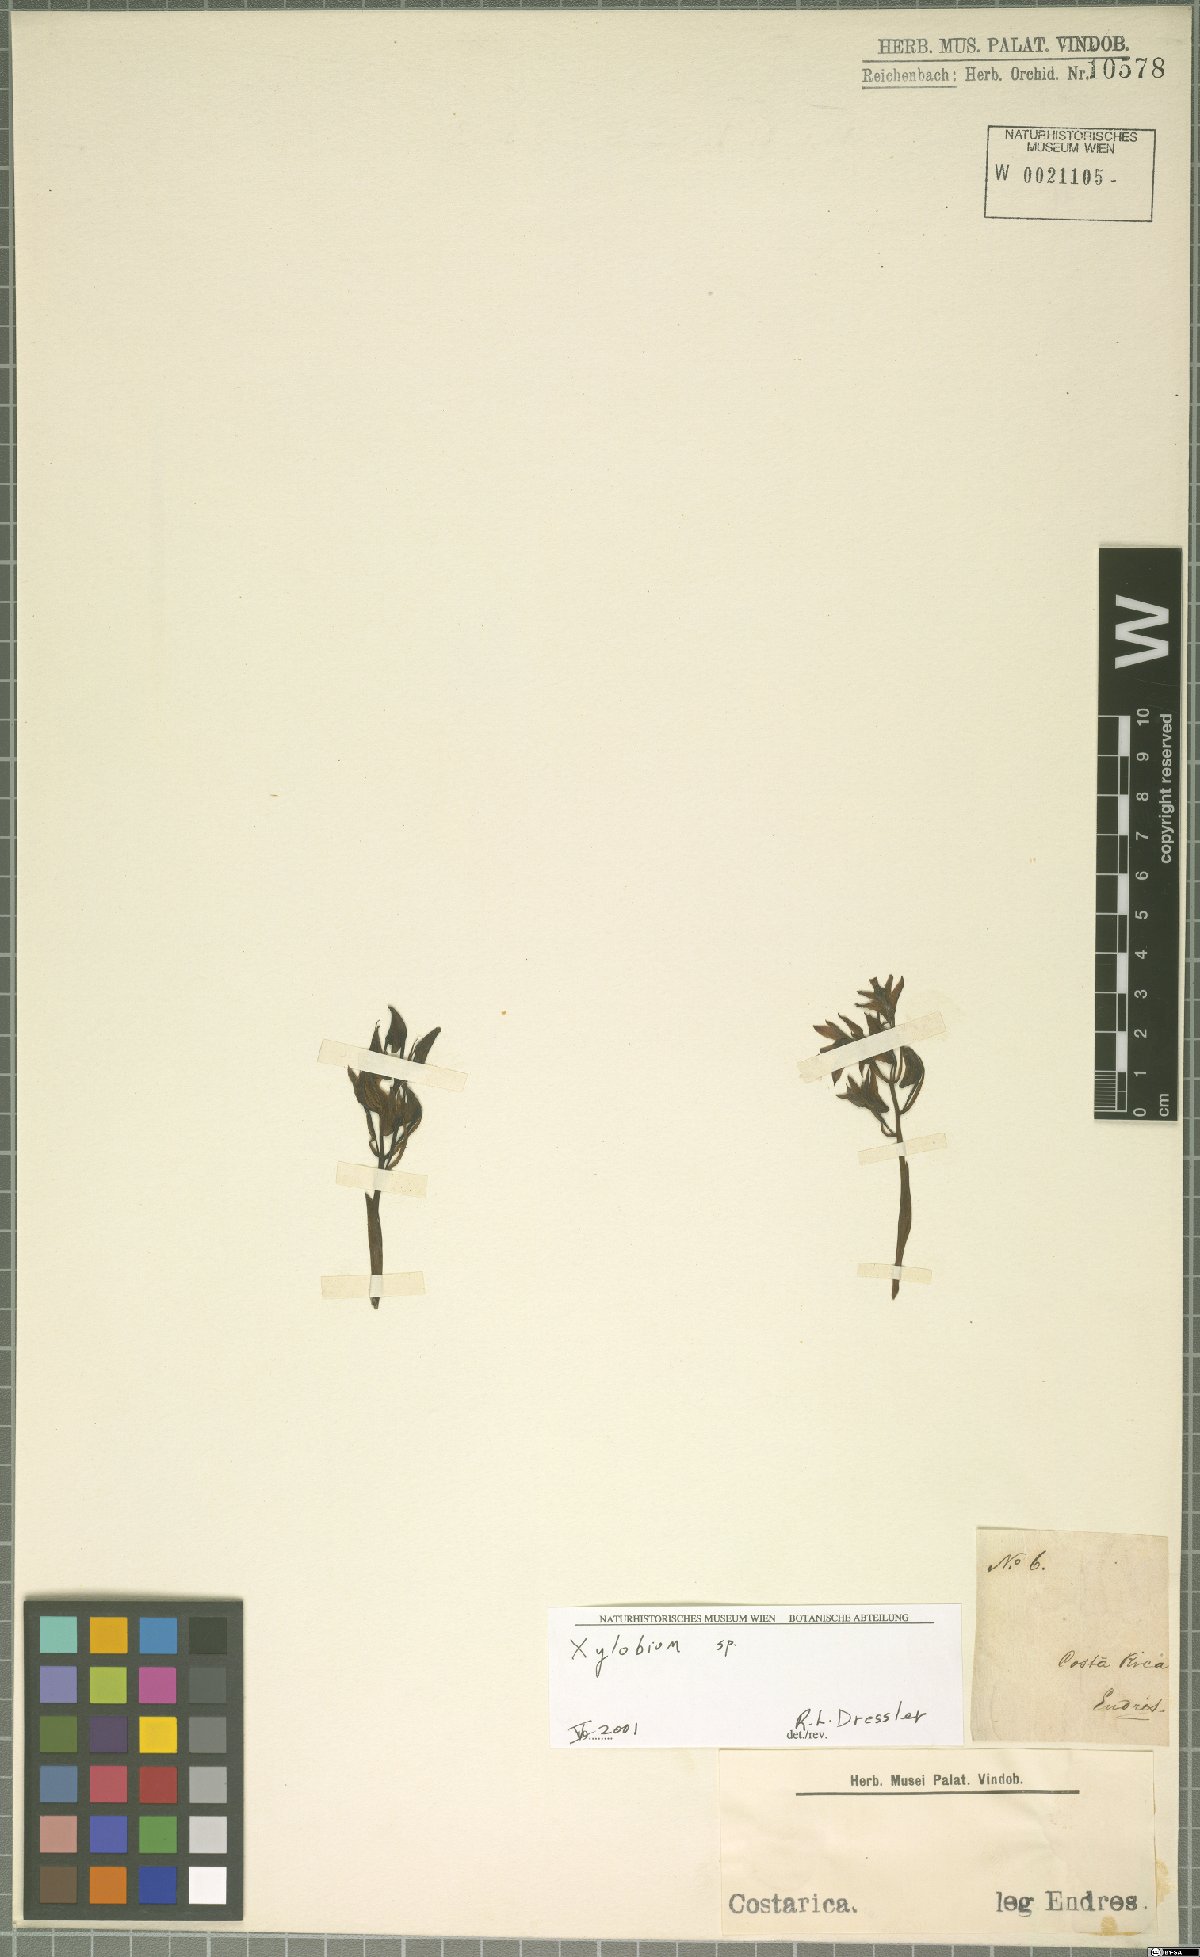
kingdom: Plantae
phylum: Tracheophyta
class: Liliopsida
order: Asparagales
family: Orchidaceae
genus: Xylobium
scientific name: Xylobium
